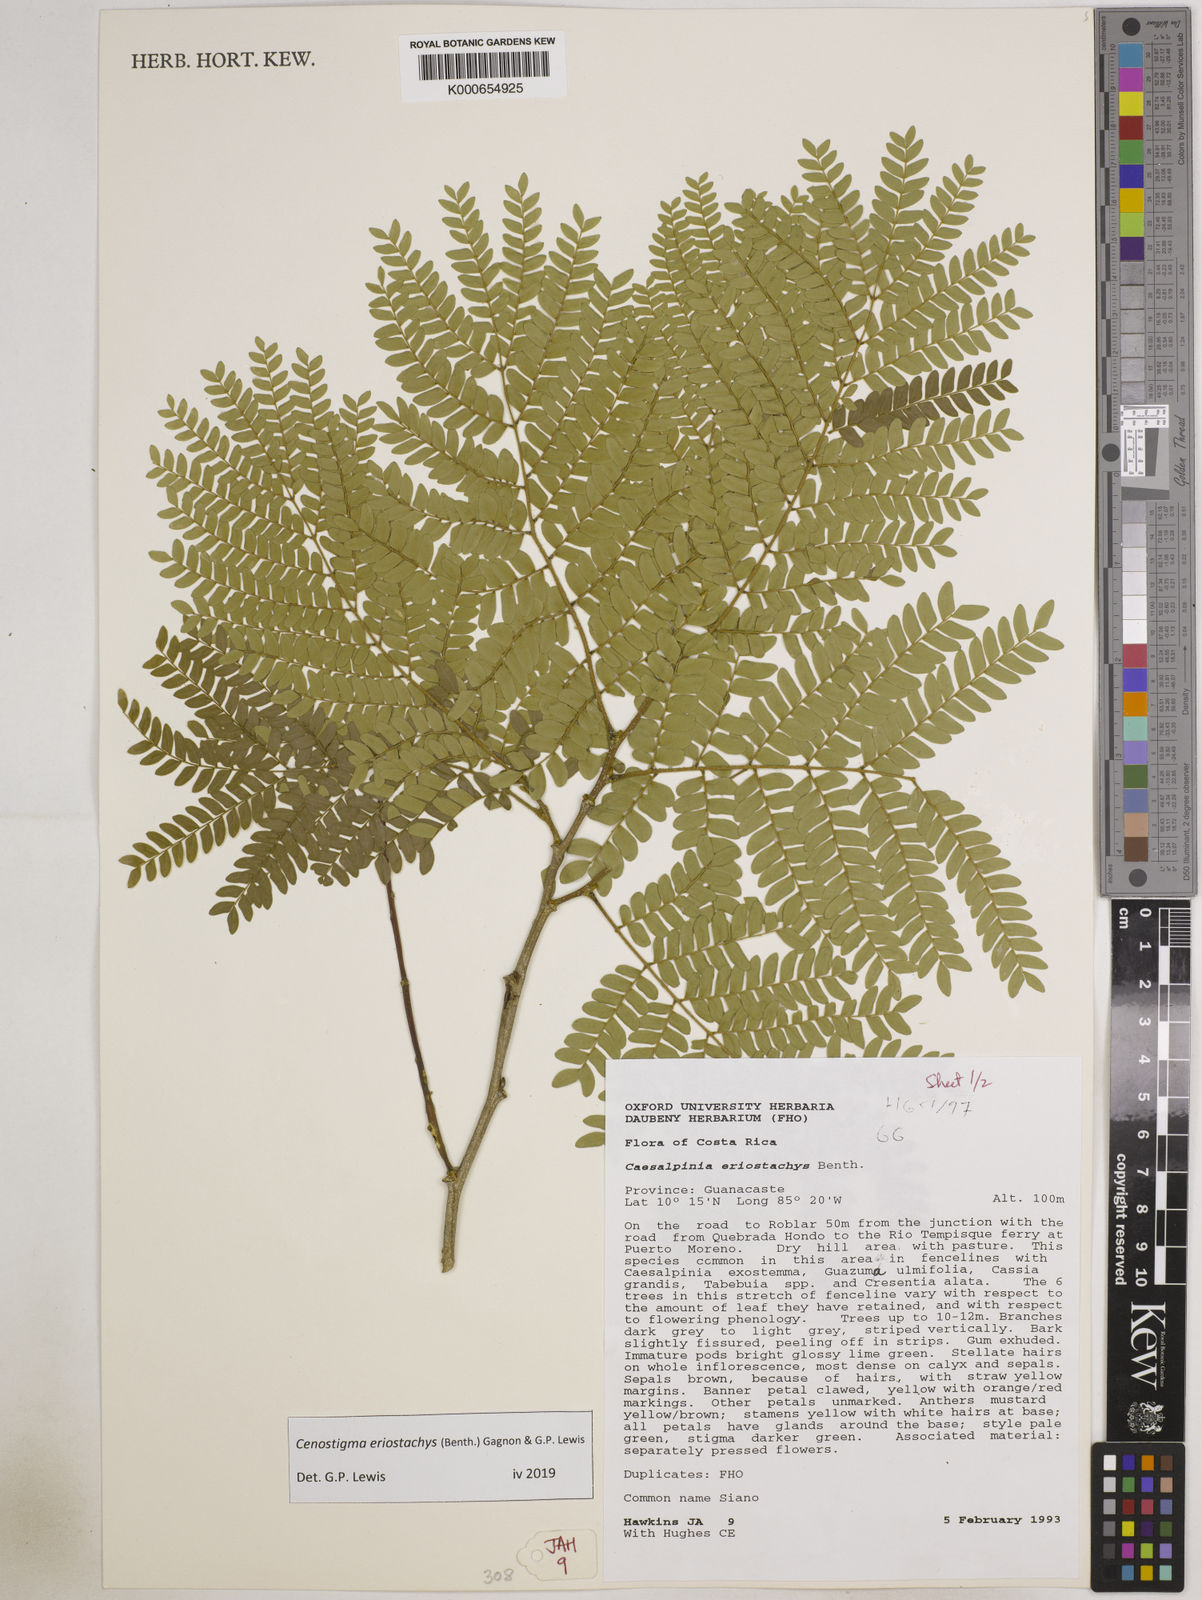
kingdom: Plantae
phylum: Tracheophyta
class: Magnoliopsida
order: Fabales
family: Fabaceae
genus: Cenostigma
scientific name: Cenostigma eriostachys
